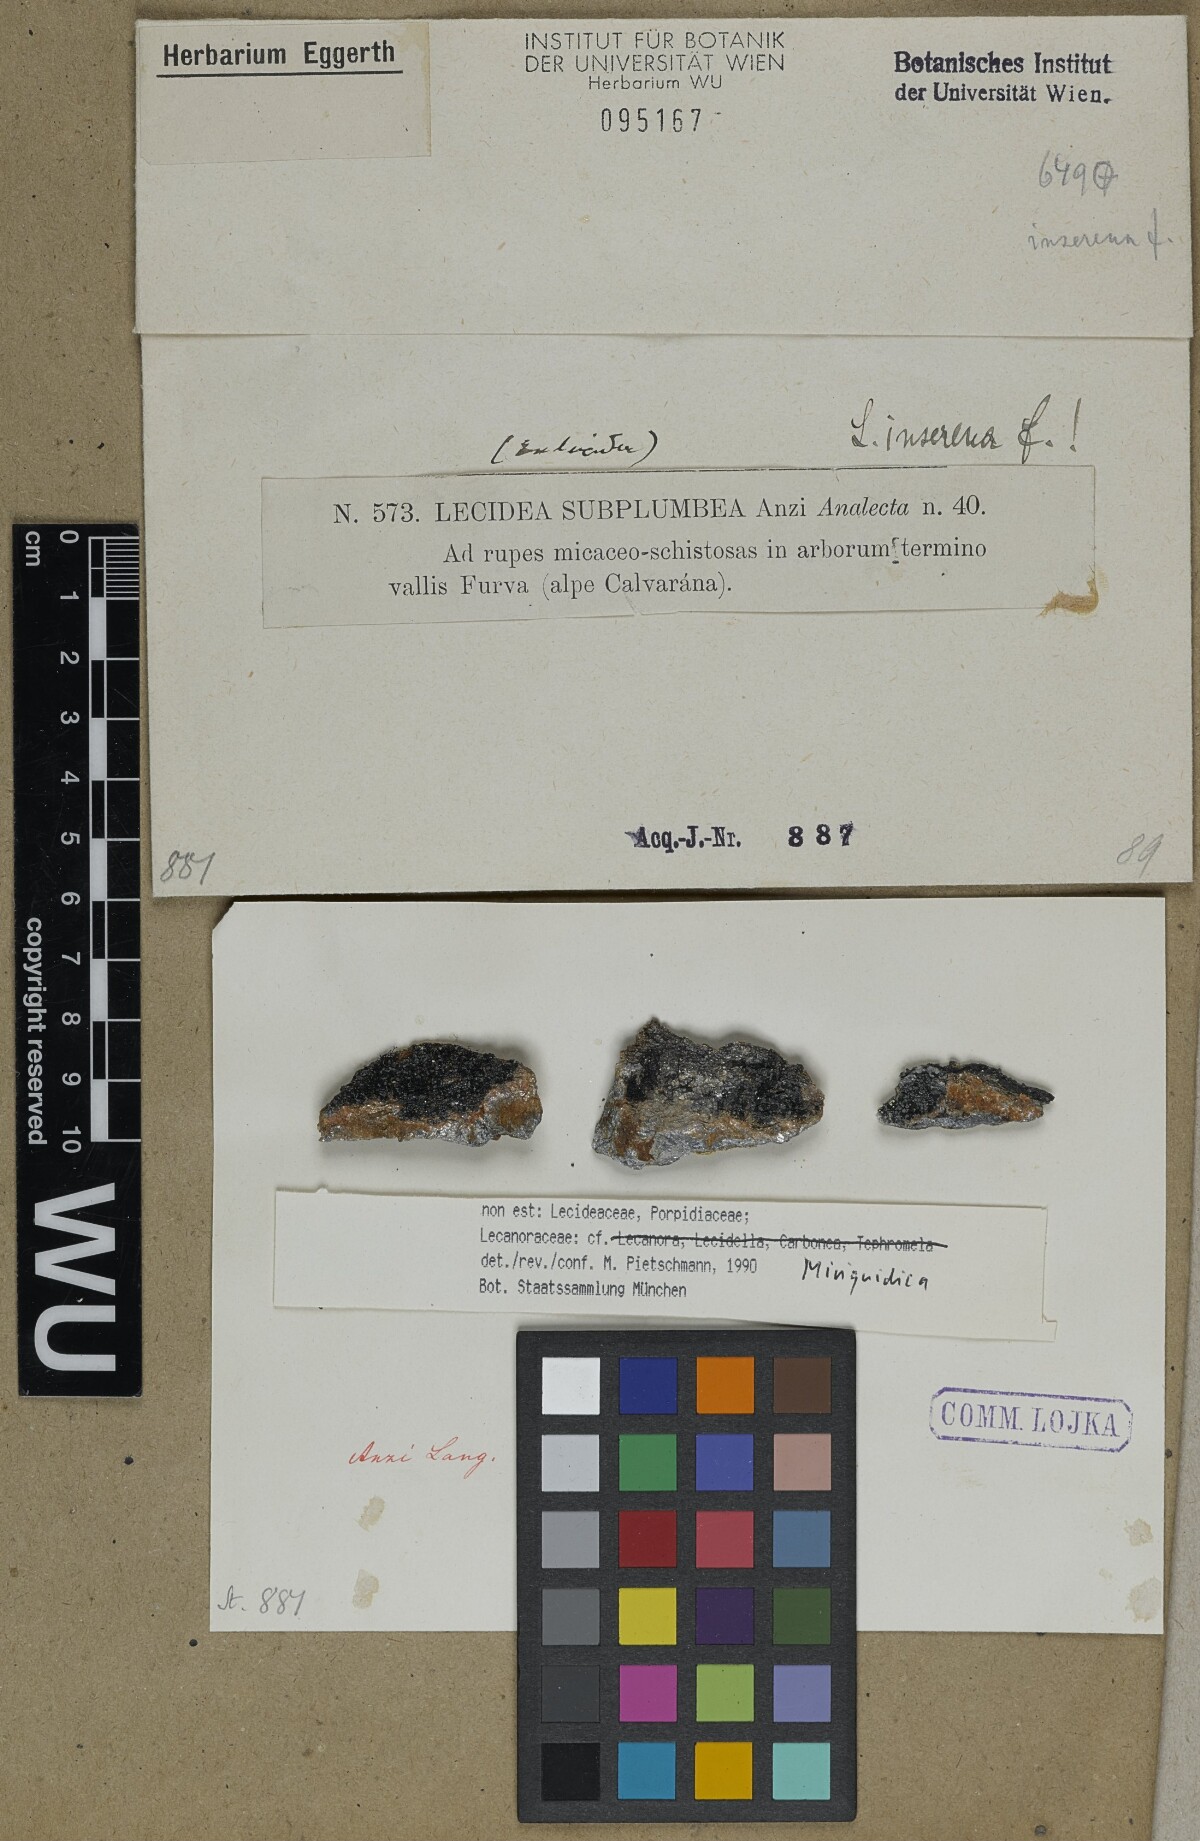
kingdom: Fungi
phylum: Ascomycota
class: Lecanoromycetes
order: Lecanorales
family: Lecanoraceae
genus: Miriquidica
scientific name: Miriquidica
